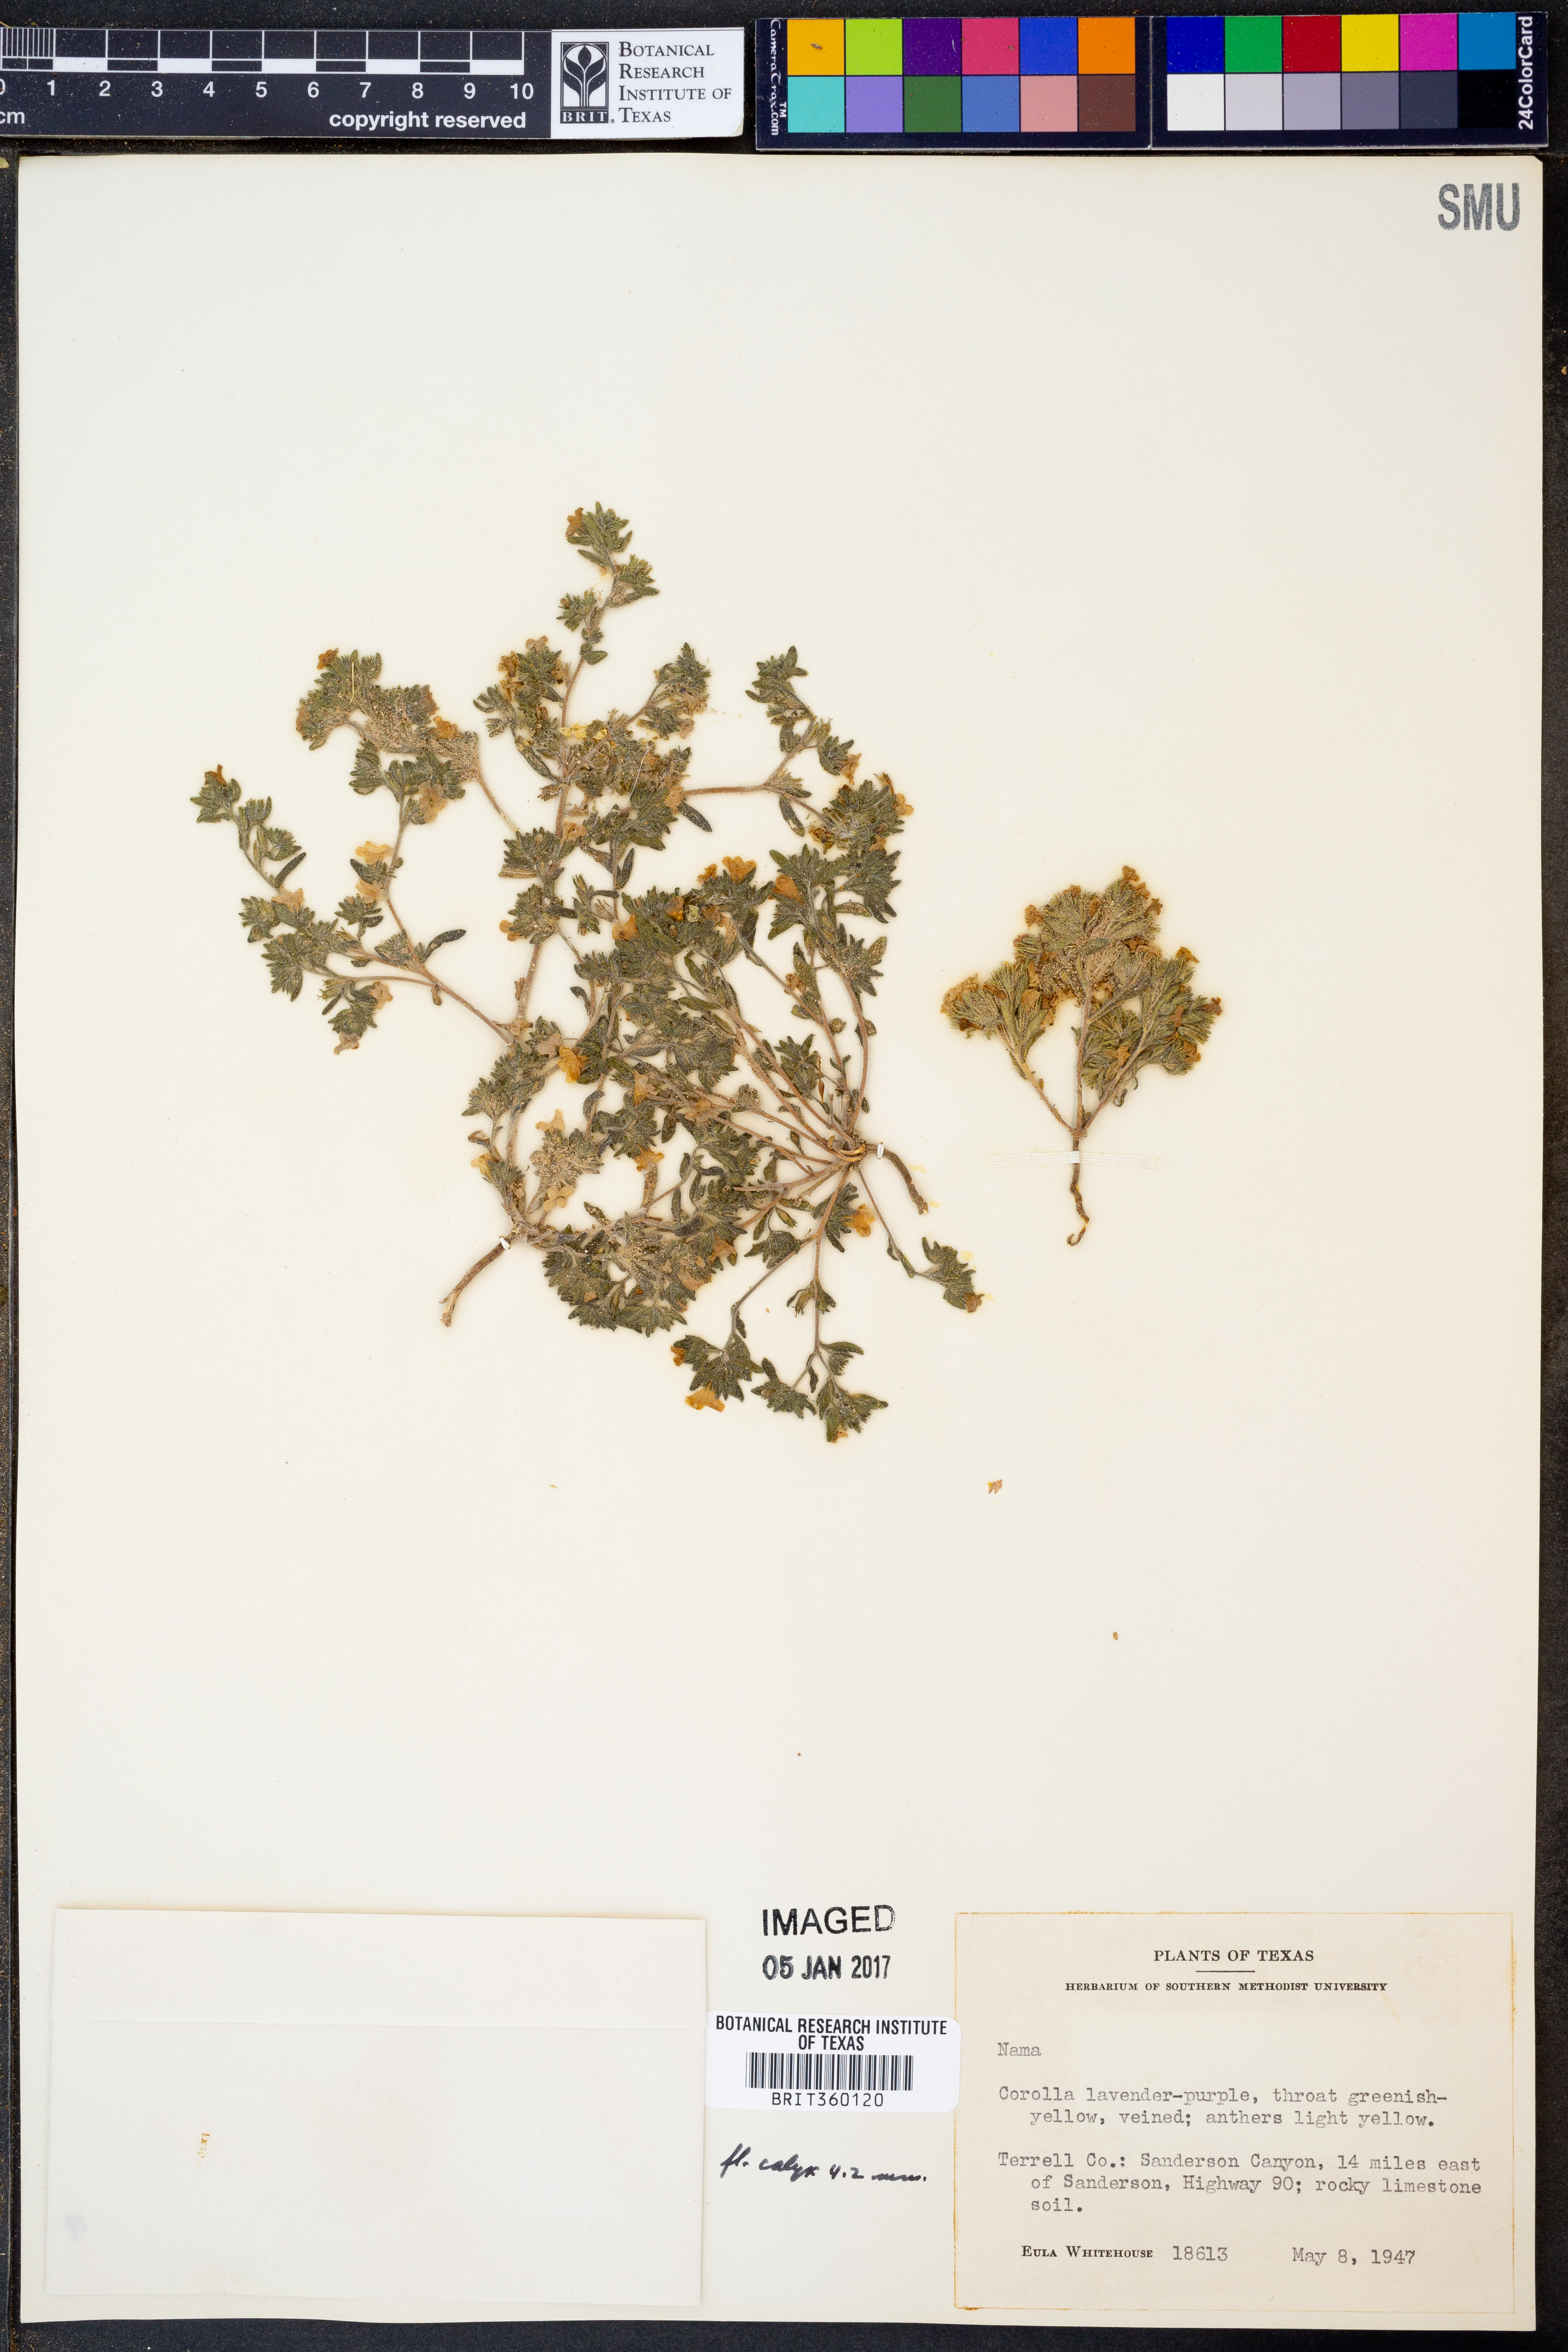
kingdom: Plantae
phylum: Tracheophyta
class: Magnoliopsida
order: Boraginales
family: Namaceae
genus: Nama
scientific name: Nama
